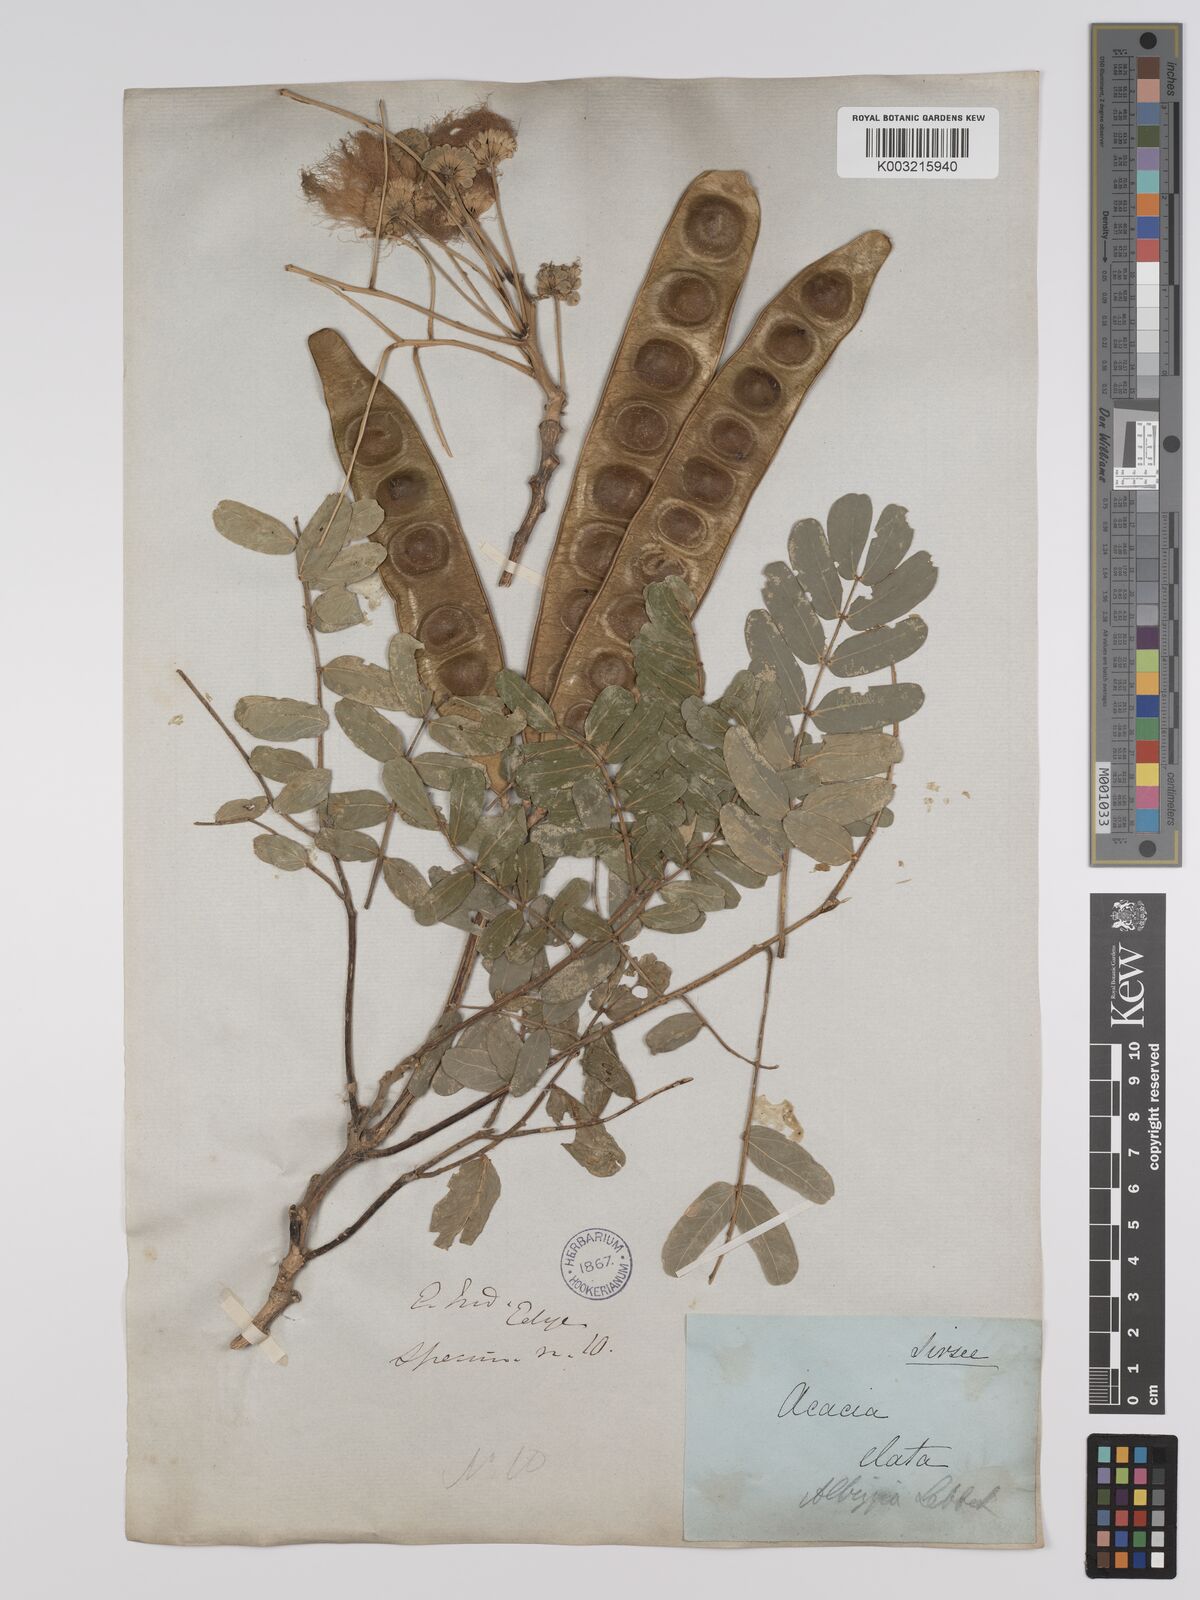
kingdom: Plantae
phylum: Tracheophyta
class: Magnoliopsida
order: Fabales
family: Fabaceae
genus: Albizia
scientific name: Albizia lebbeck
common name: Woman's tongue
